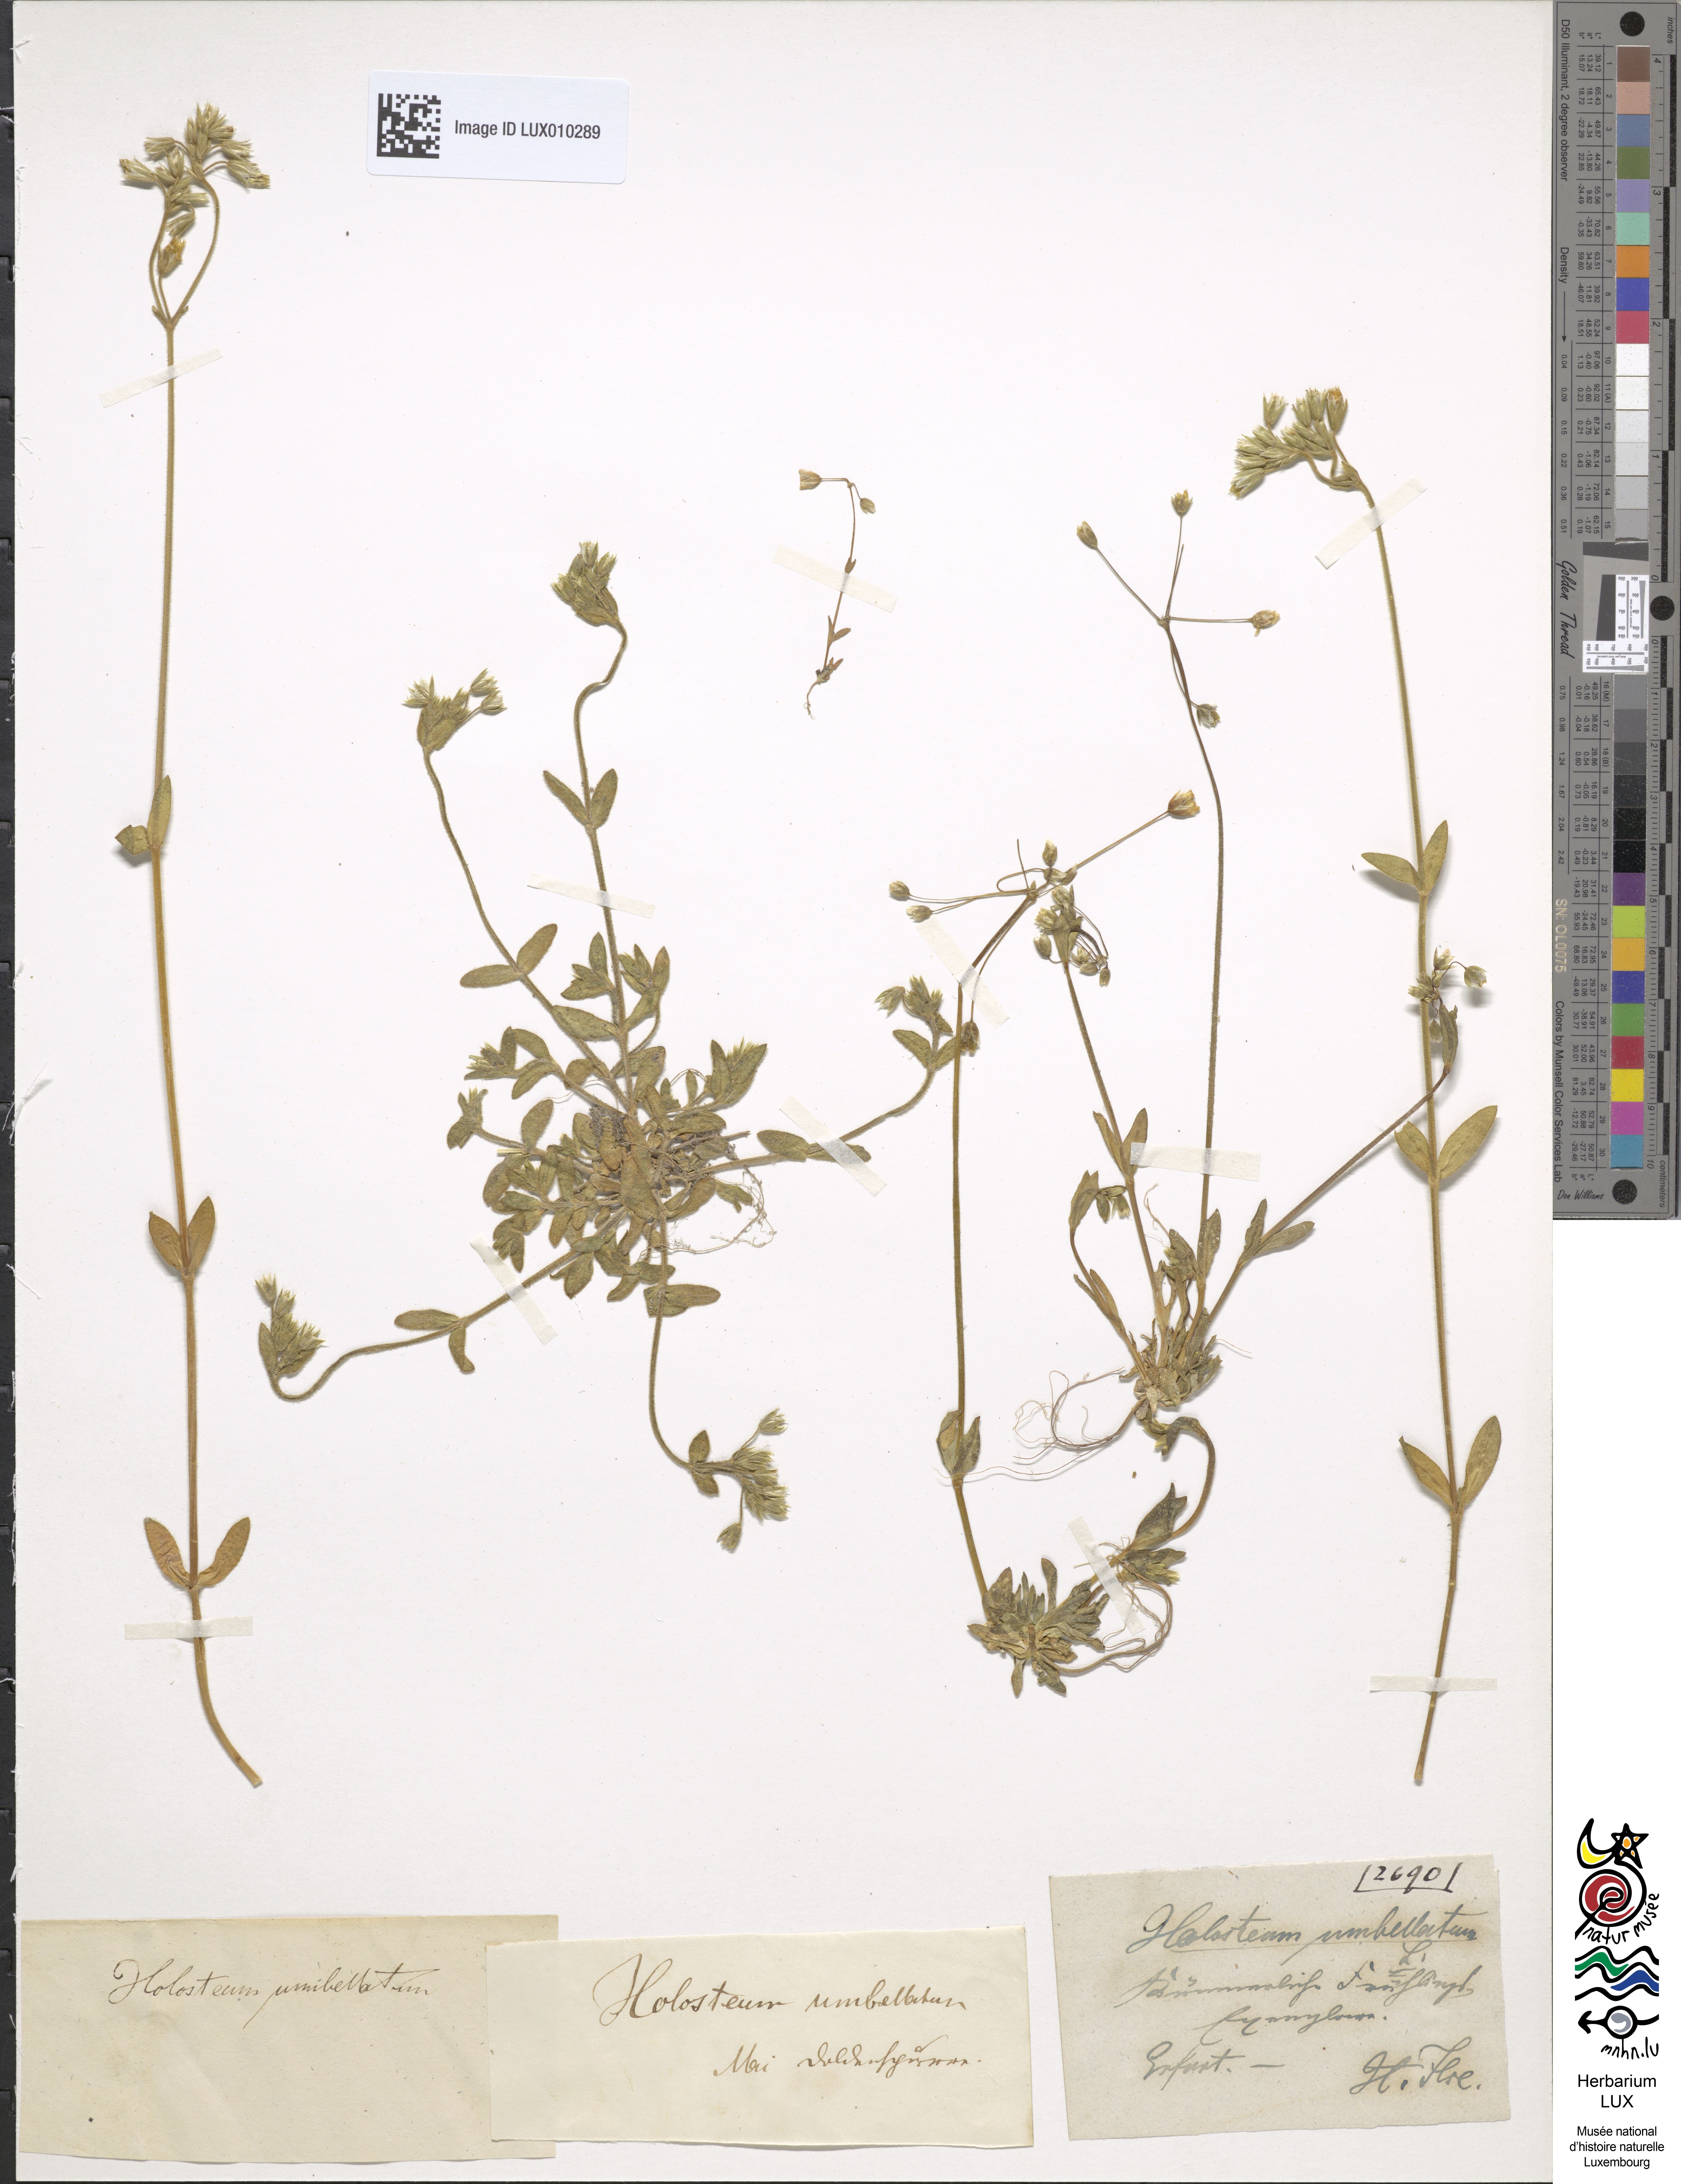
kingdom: Plantae
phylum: Tracheophyta
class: Magnoliopsida
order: Caryophyllales
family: Caryophyllaceae
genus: Holosteum
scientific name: Holosteum umbellatum
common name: Jagged chickweed
